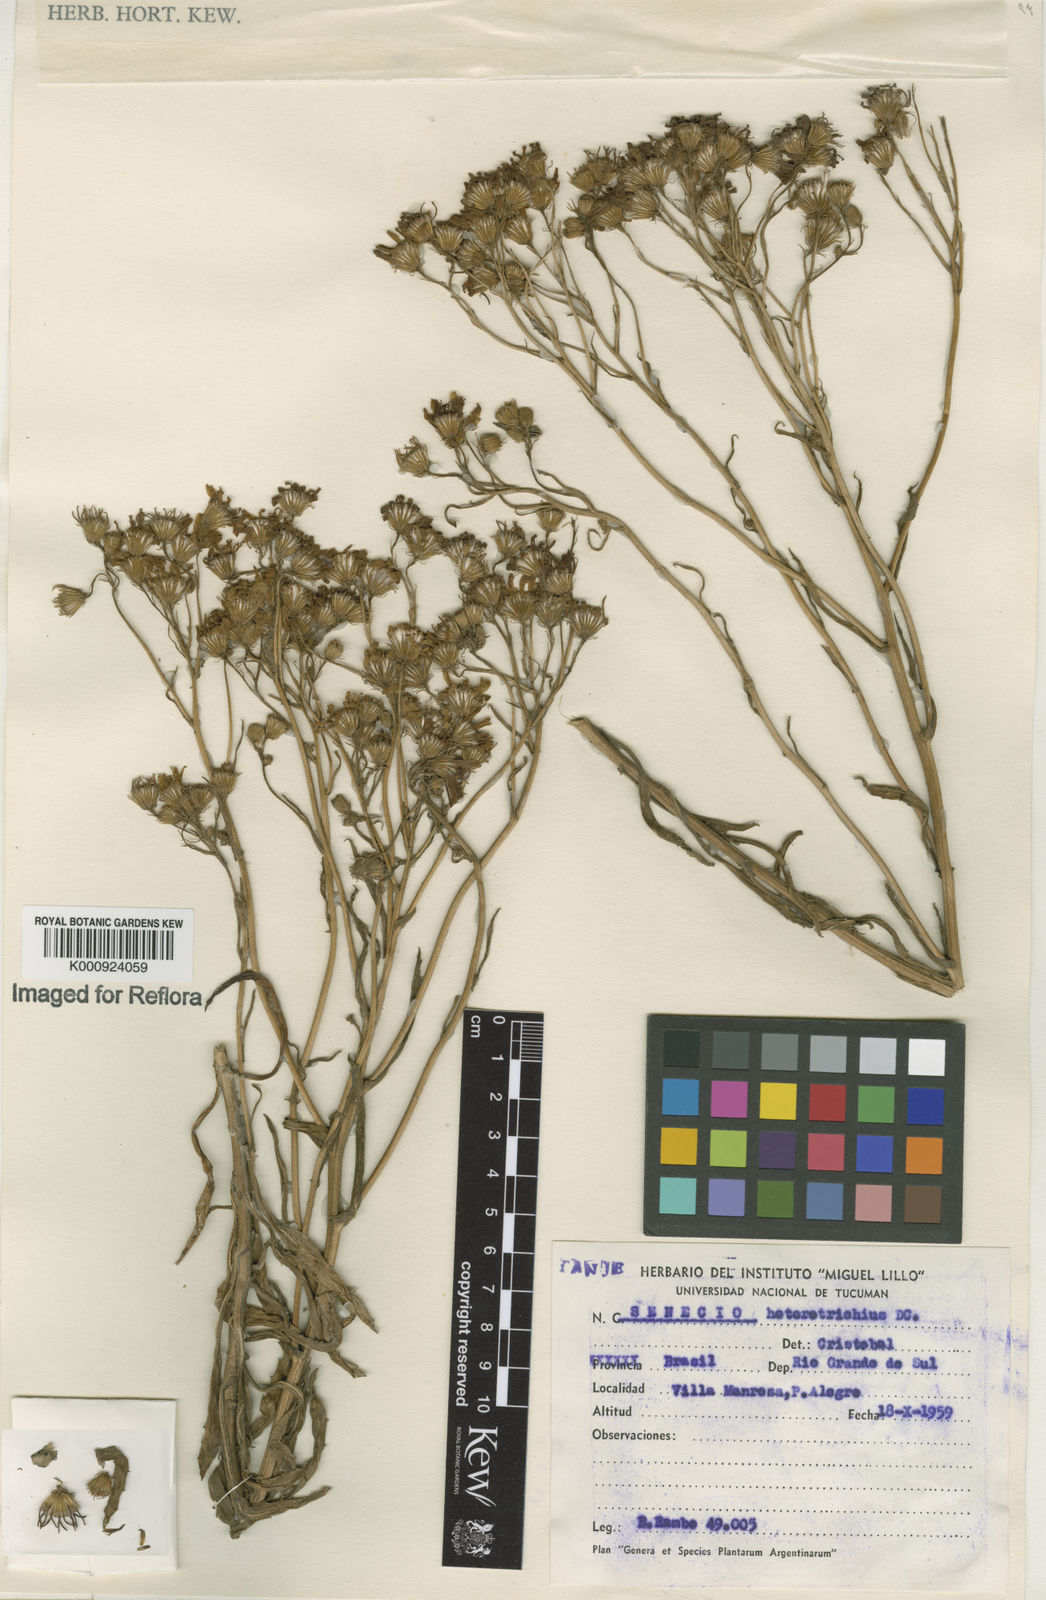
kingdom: Plantae
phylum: Tracheophyta
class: Magnoliopsida
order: Asterales
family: Asteraceae
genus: Senecio
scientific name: Senecio heterotrichius
